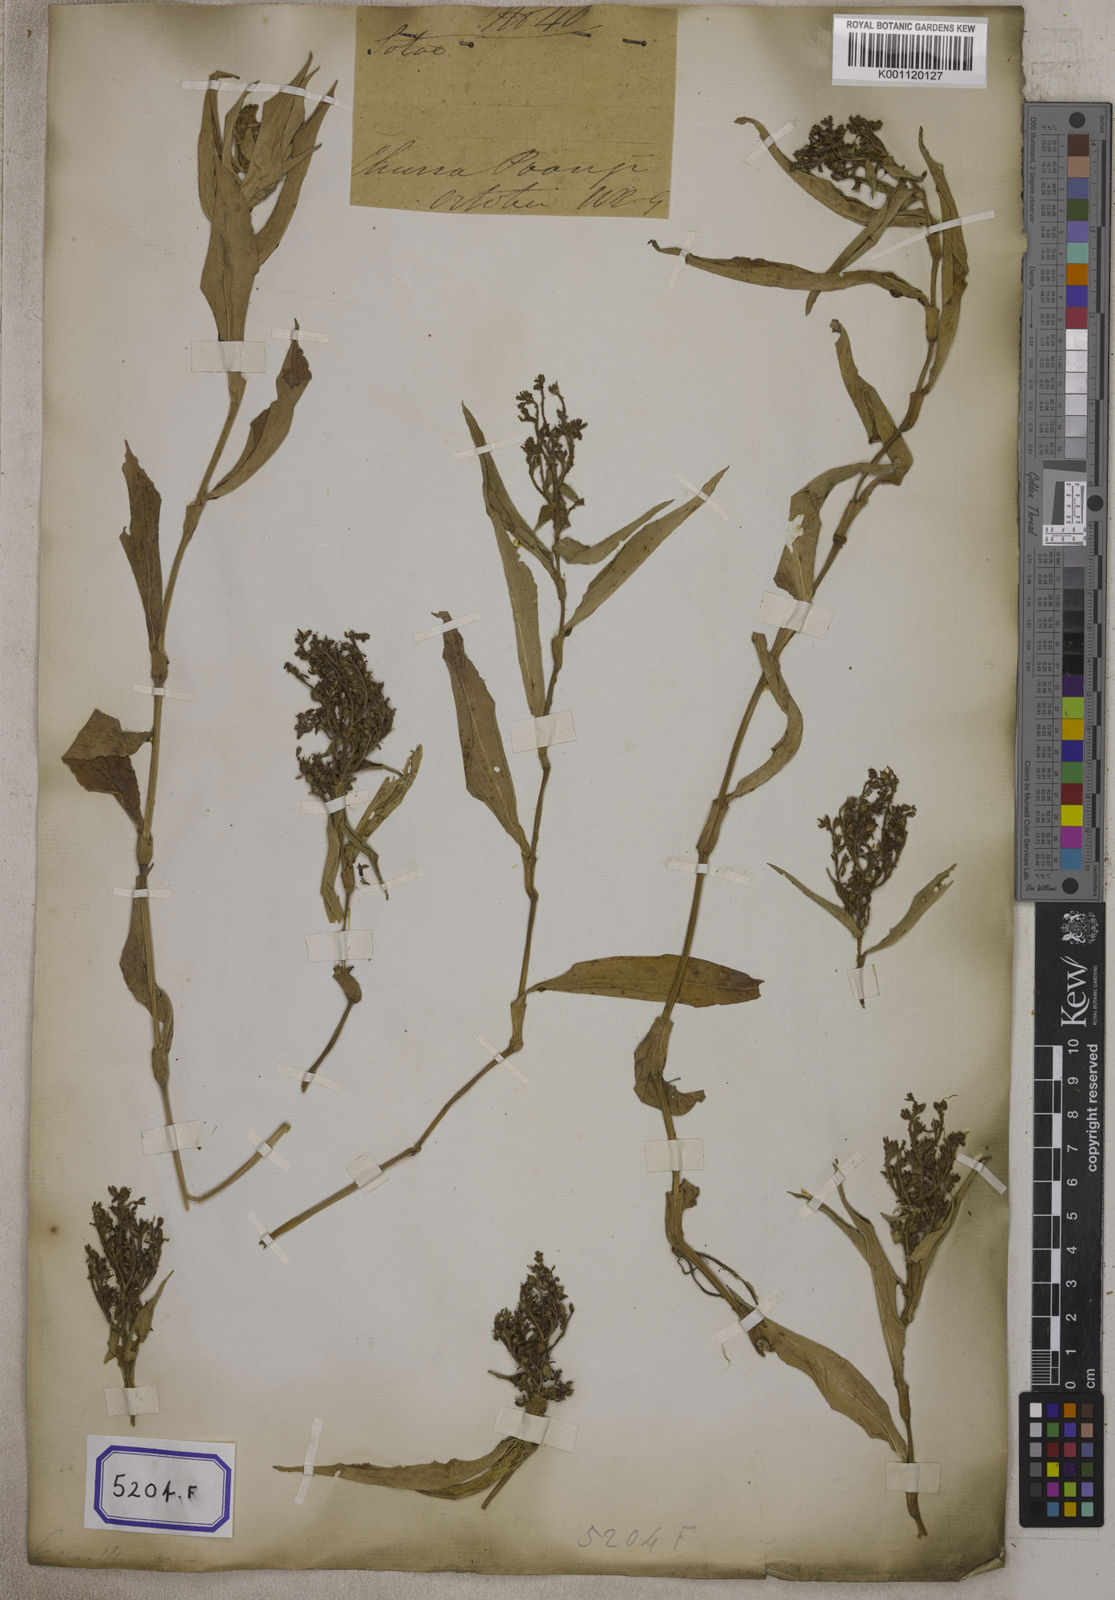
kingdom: Plantae
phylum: Tracheophyta
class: Liliopsida
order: Commelinales
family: Commelinaceae
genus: Floscopa
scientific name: Floscopa scandens
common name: Climbing flower cup
